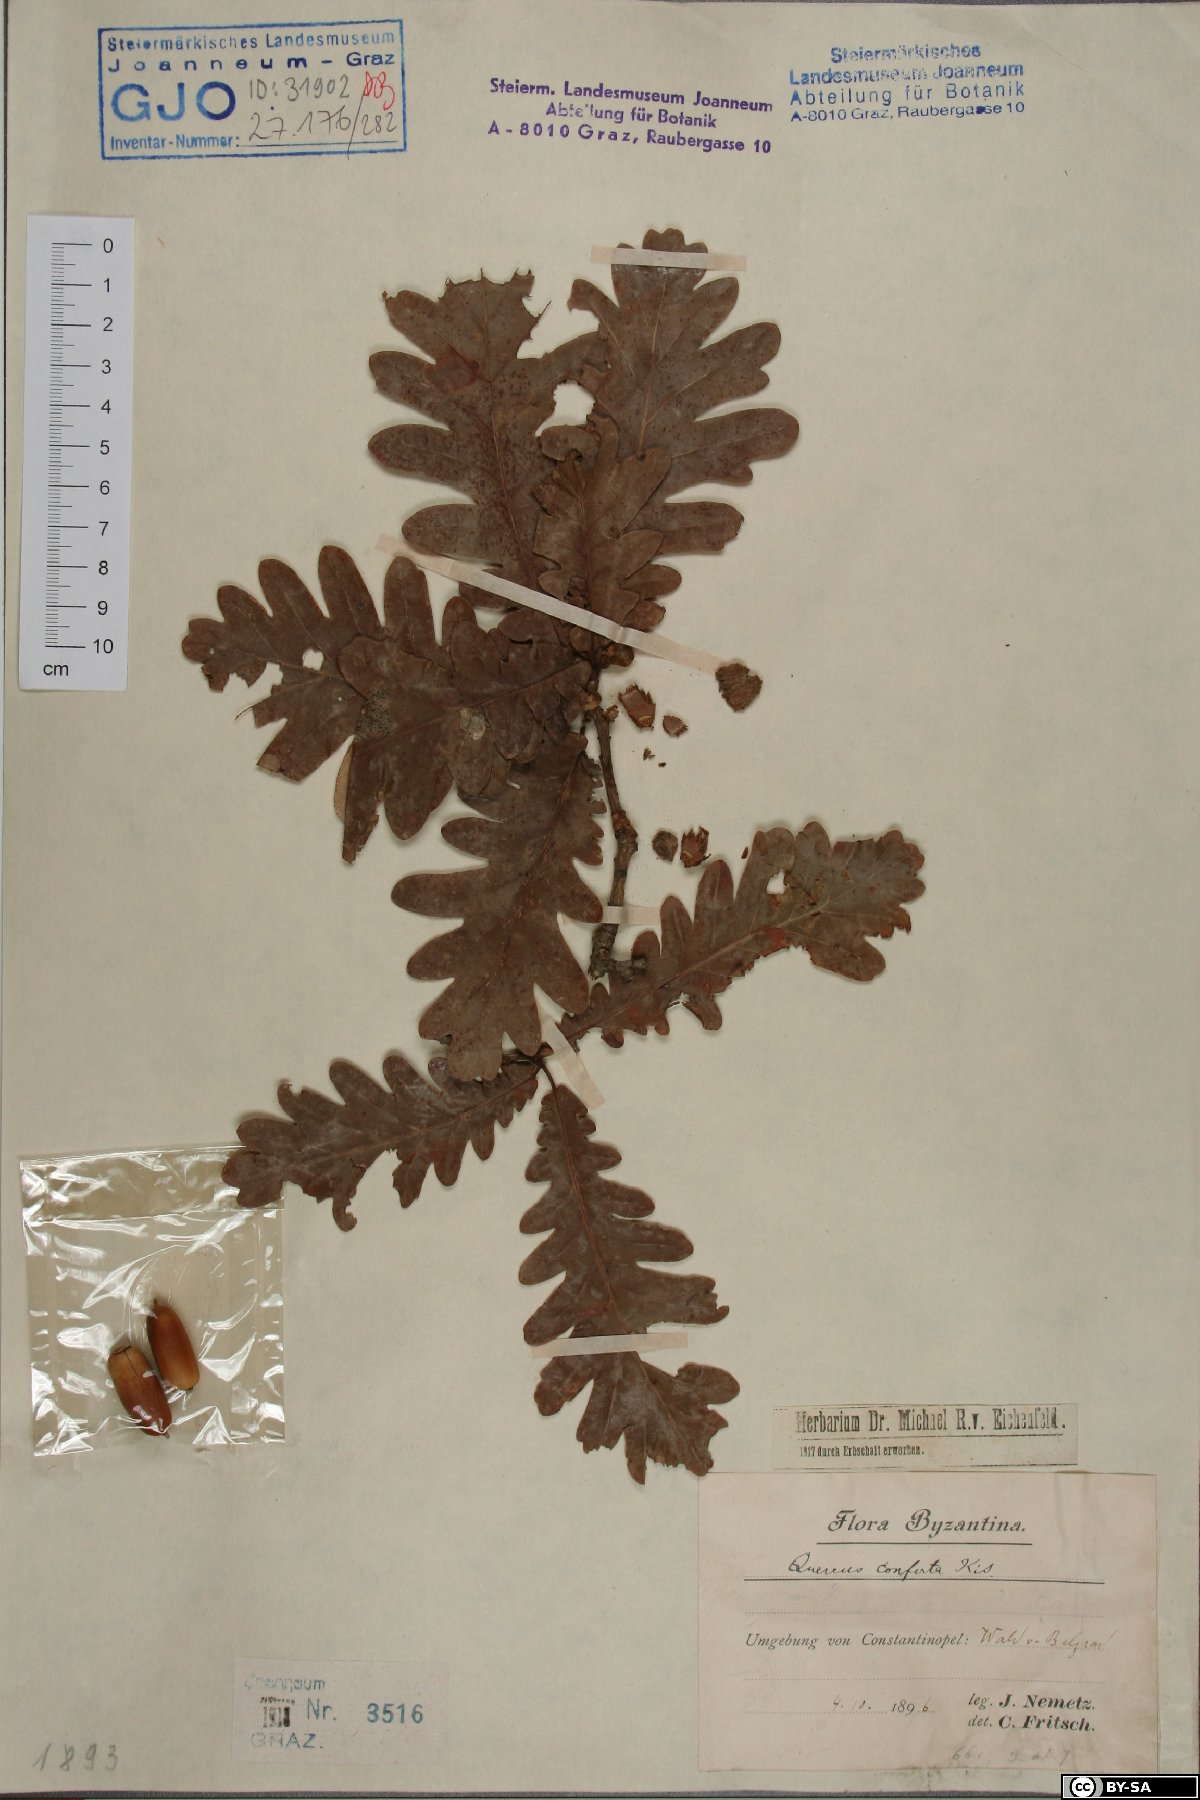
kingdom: Plantae
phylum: Tracheophyta
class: Magnoliopsida
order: Fagales
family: Fagaceae
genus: Quercus
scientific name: Quercus conferta
